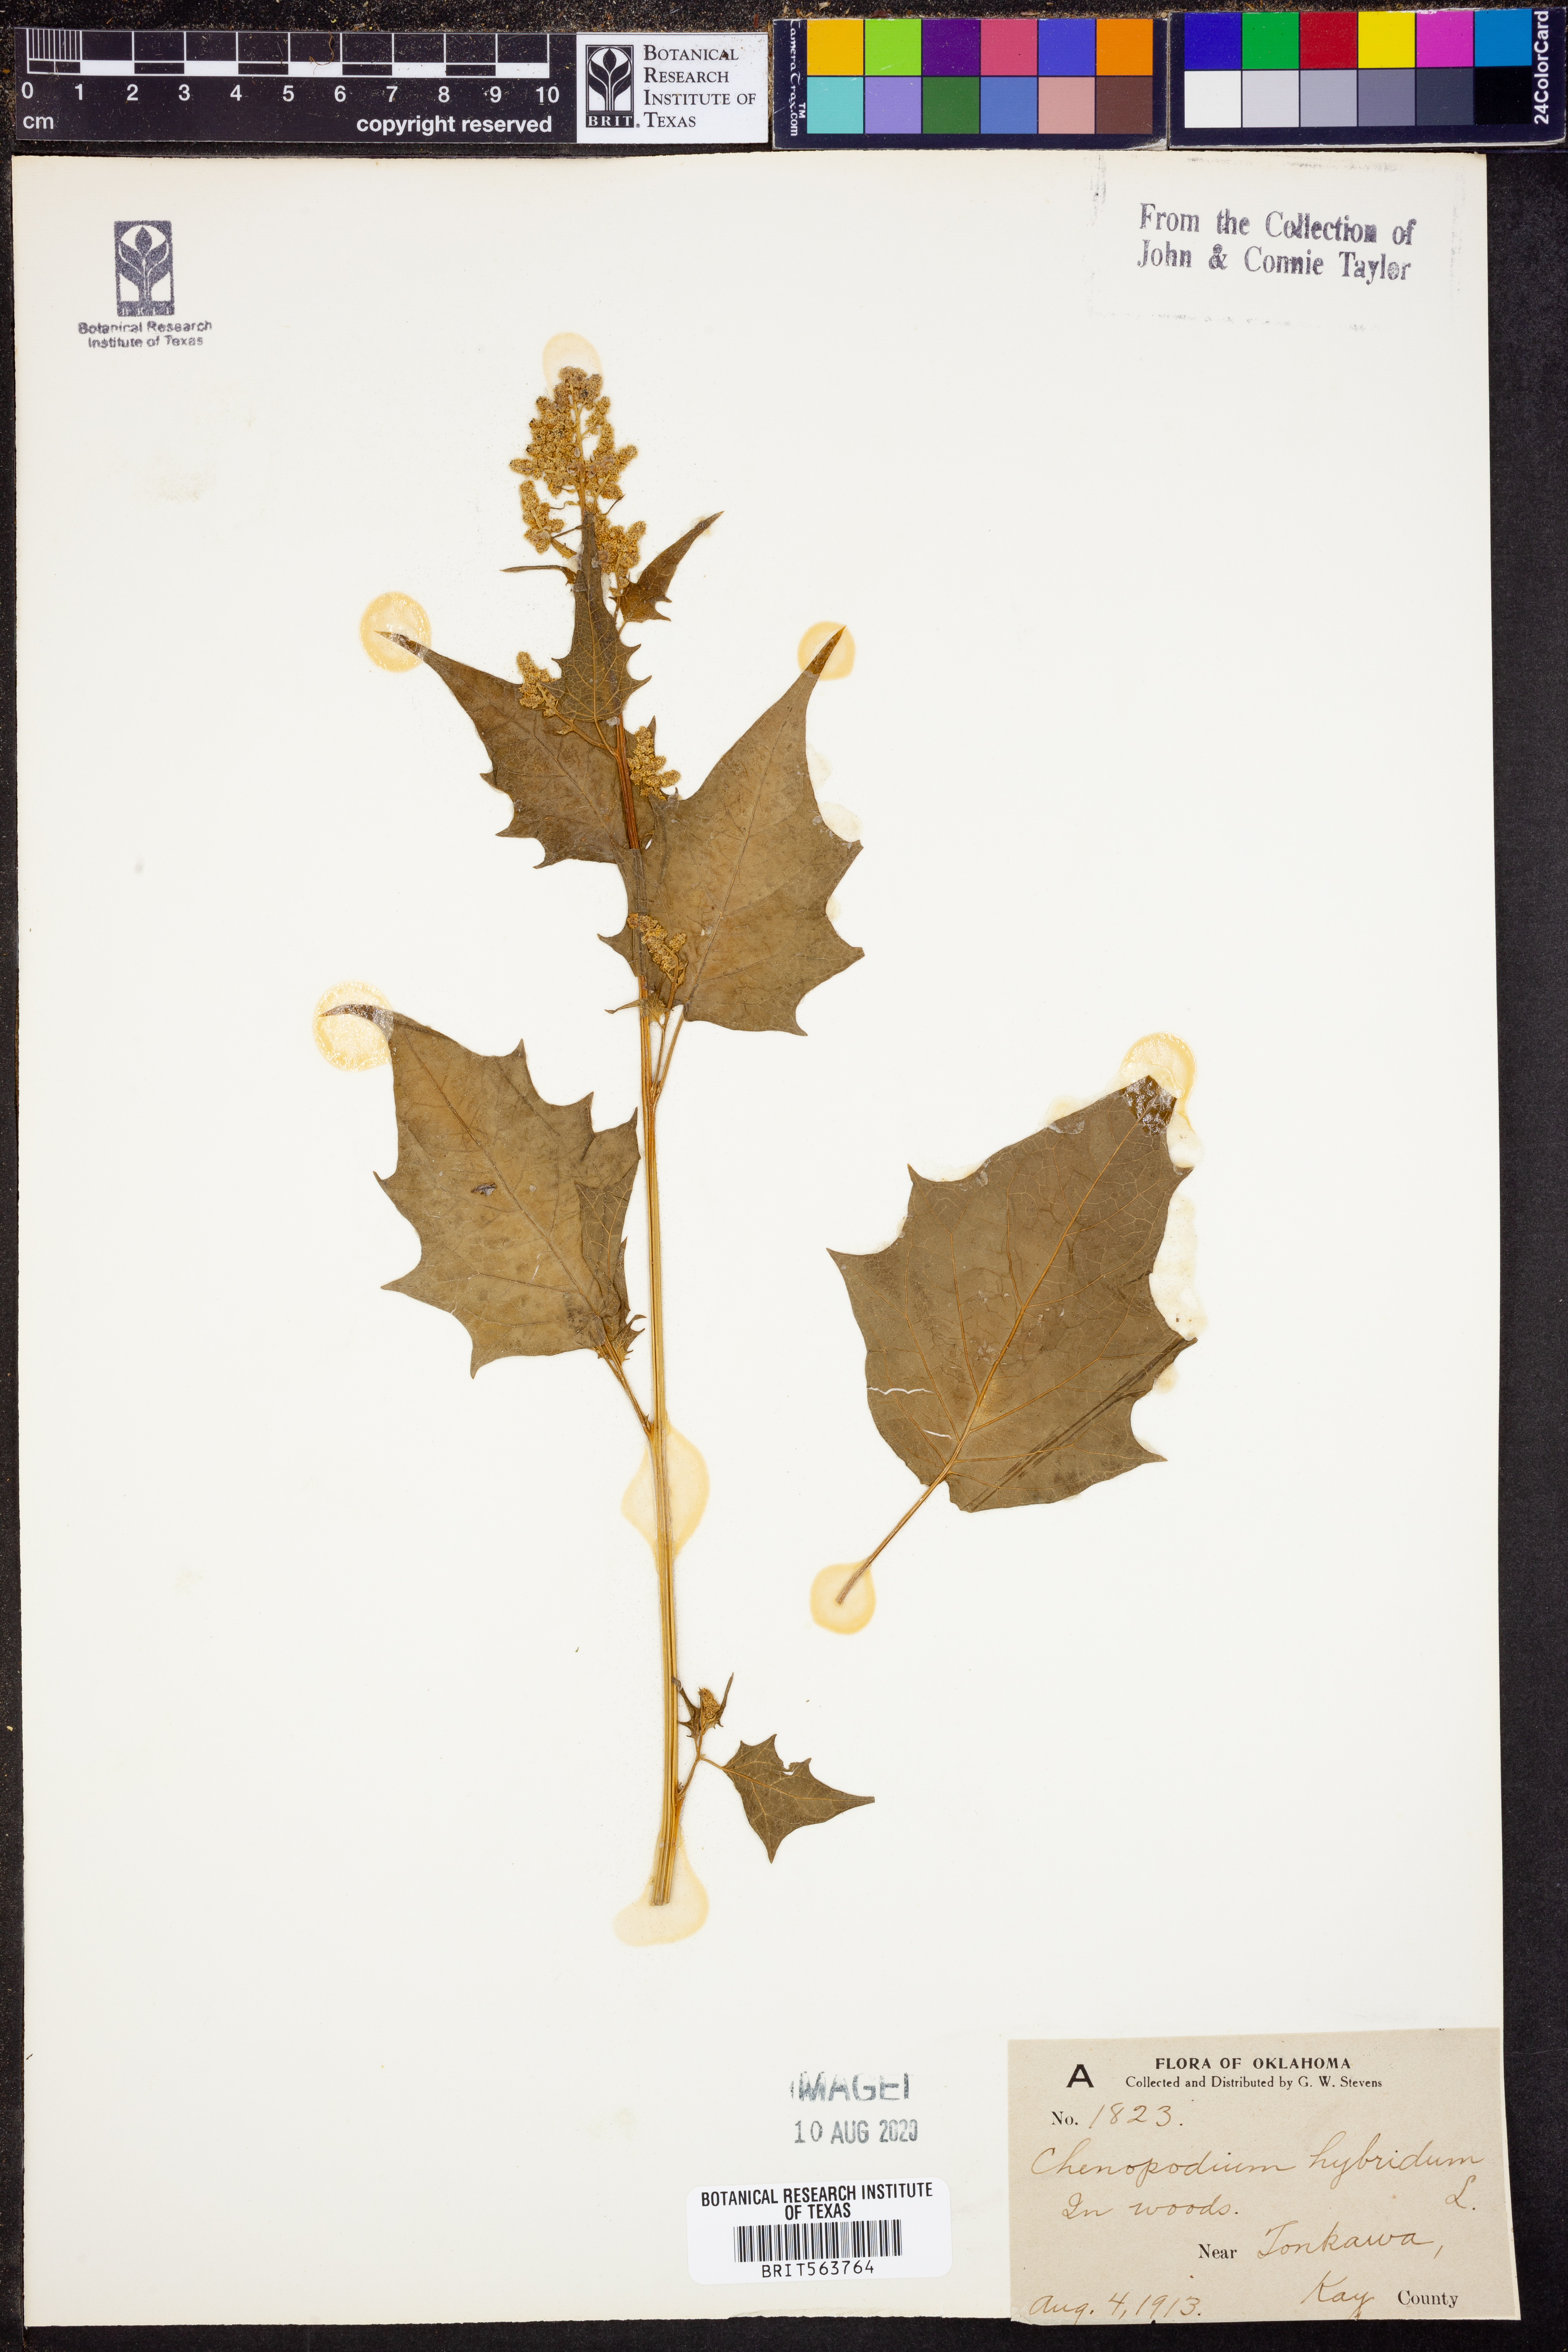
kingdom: Plantae
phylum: Tracheophyta
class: Magnoliopsida
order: Caryophyllales
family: Amaranthaceae
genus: Chenopodiastrum
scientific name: Chenopodiastrum hybridum
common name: Mapleleaf goosefoot
